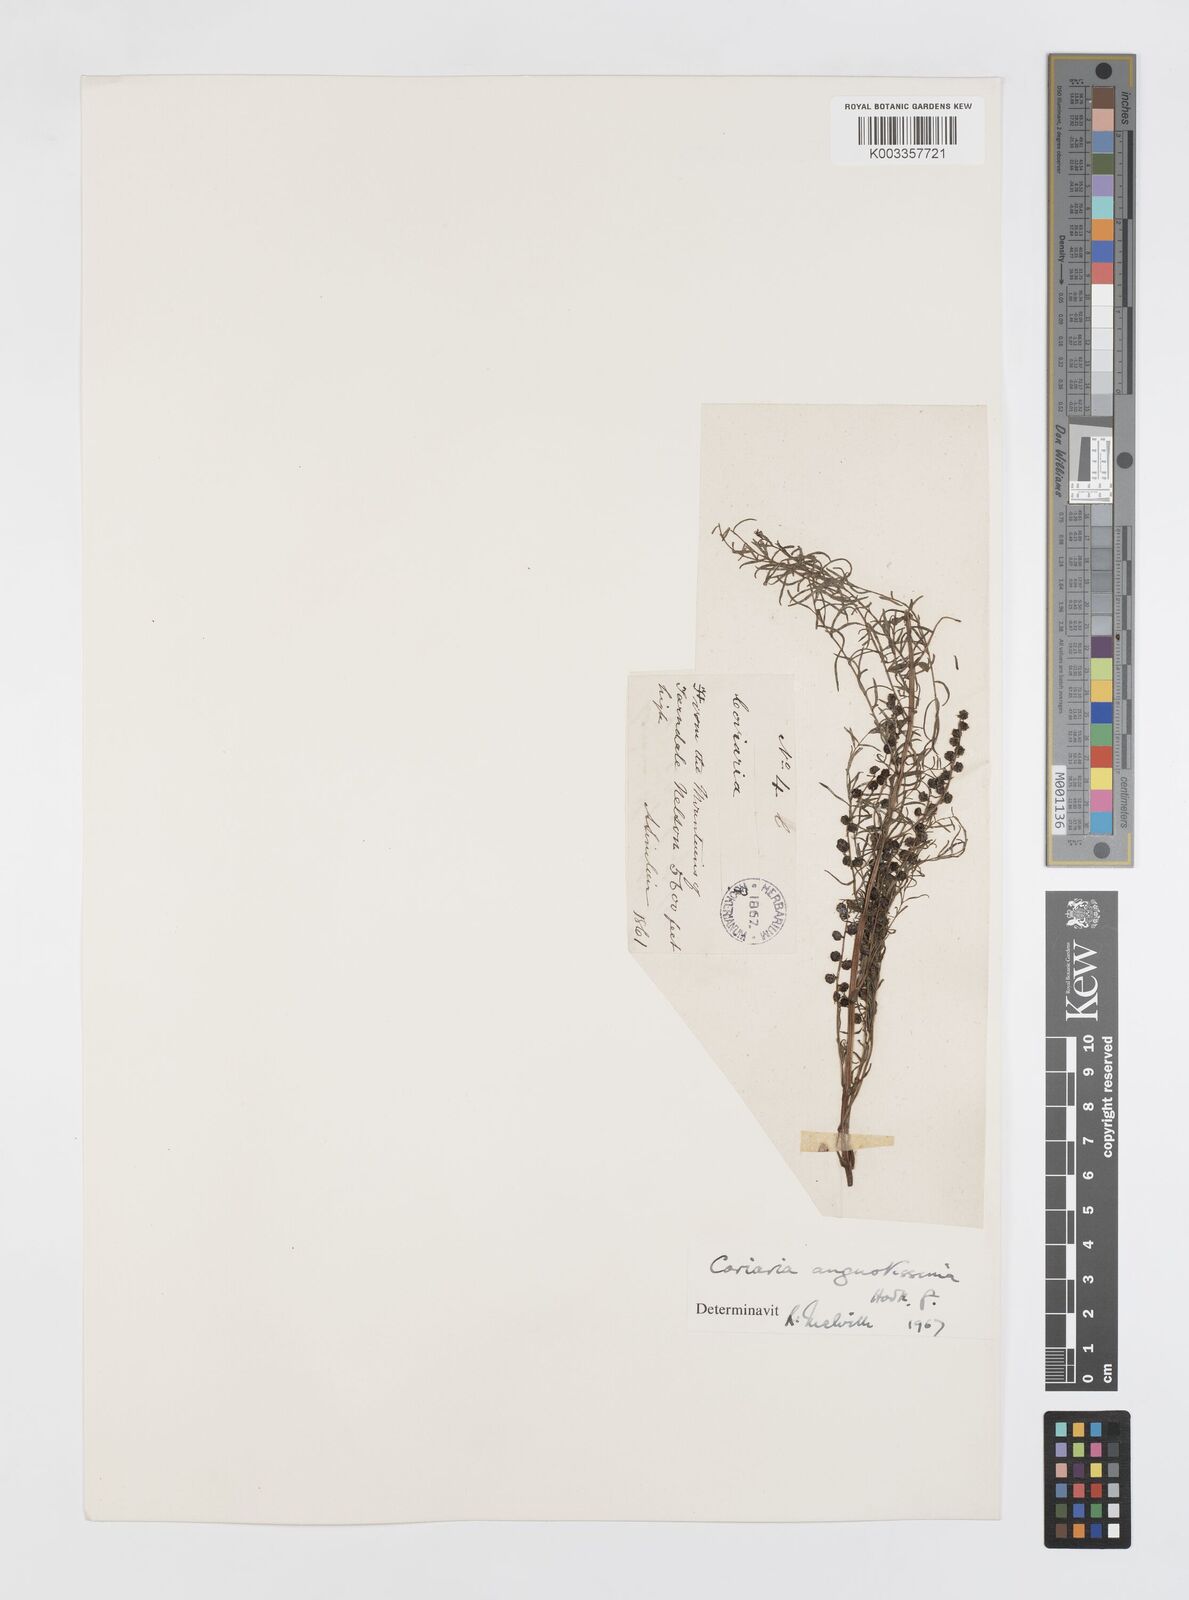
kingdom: Plantae
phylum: Tracheophyta
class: Magnoliopsida
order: Cucurbitales
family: Coriariaceae
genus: Coriaria
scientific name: Coriaria angustissima
